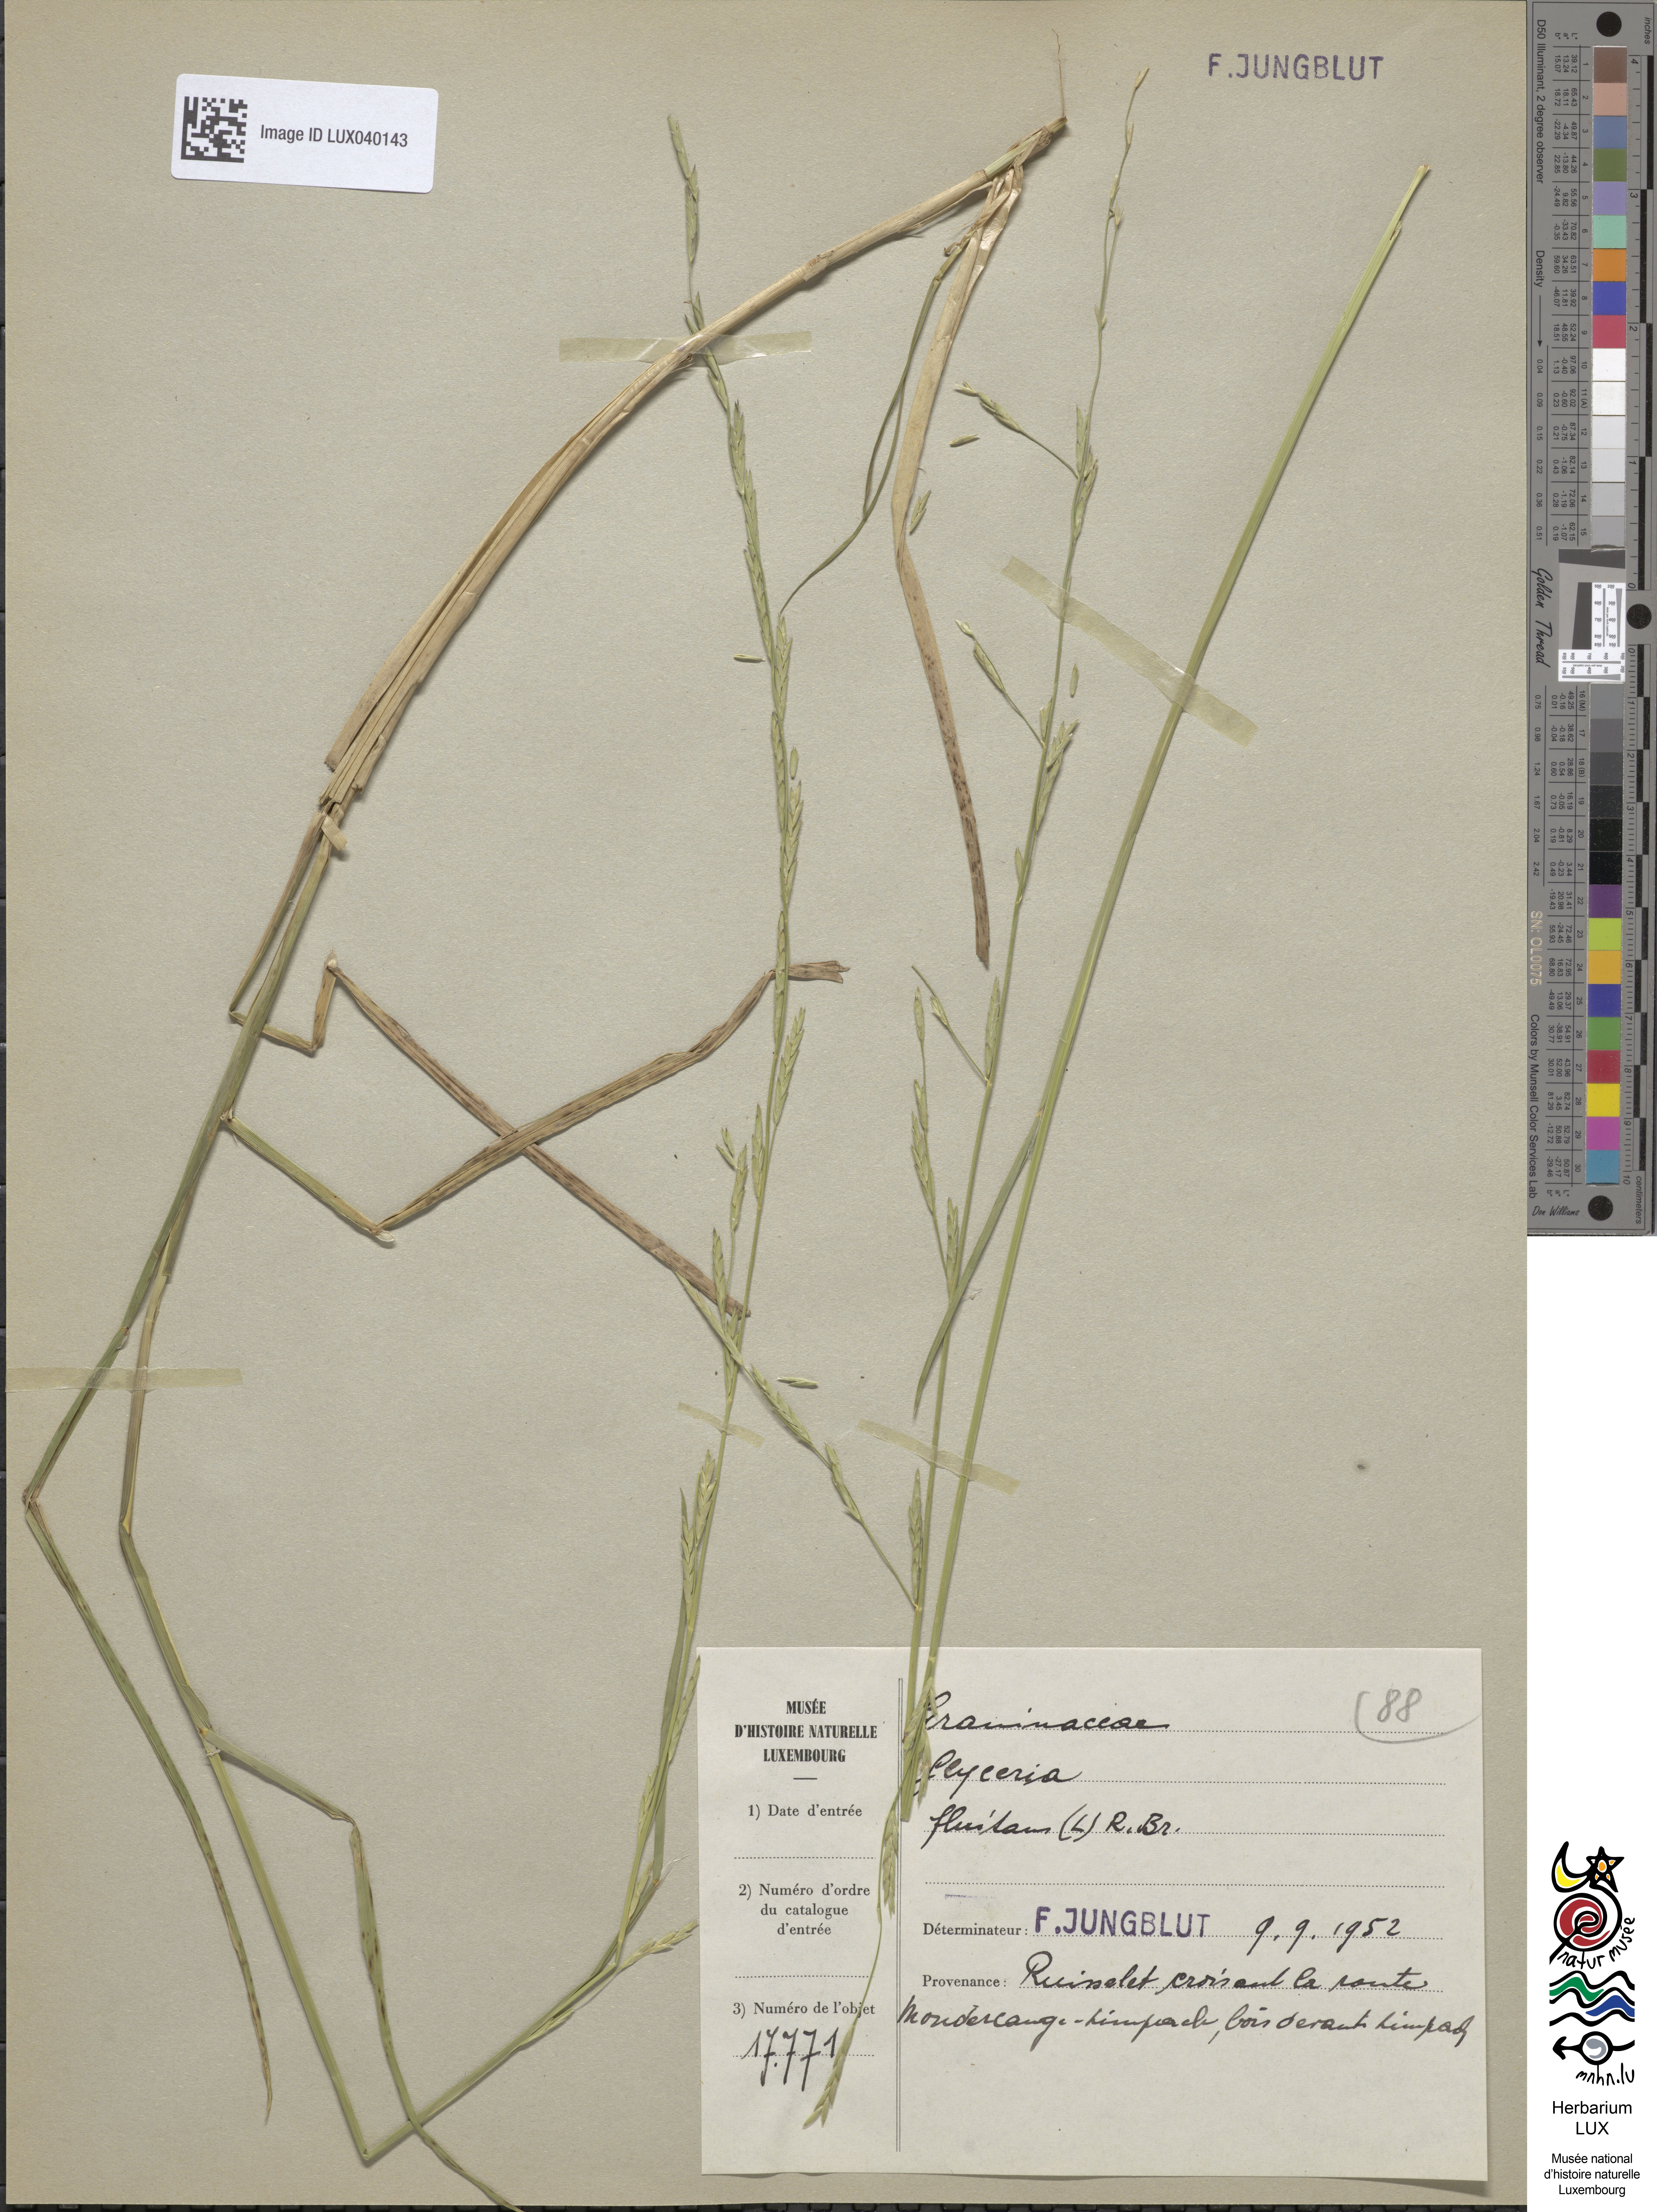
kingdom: Plantae
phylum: Tracheophyta
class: Liliopsida
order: Poales
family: Poaceae
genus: Glyceria
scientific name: Glyceria fluitans
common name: Floating sweet-grass
